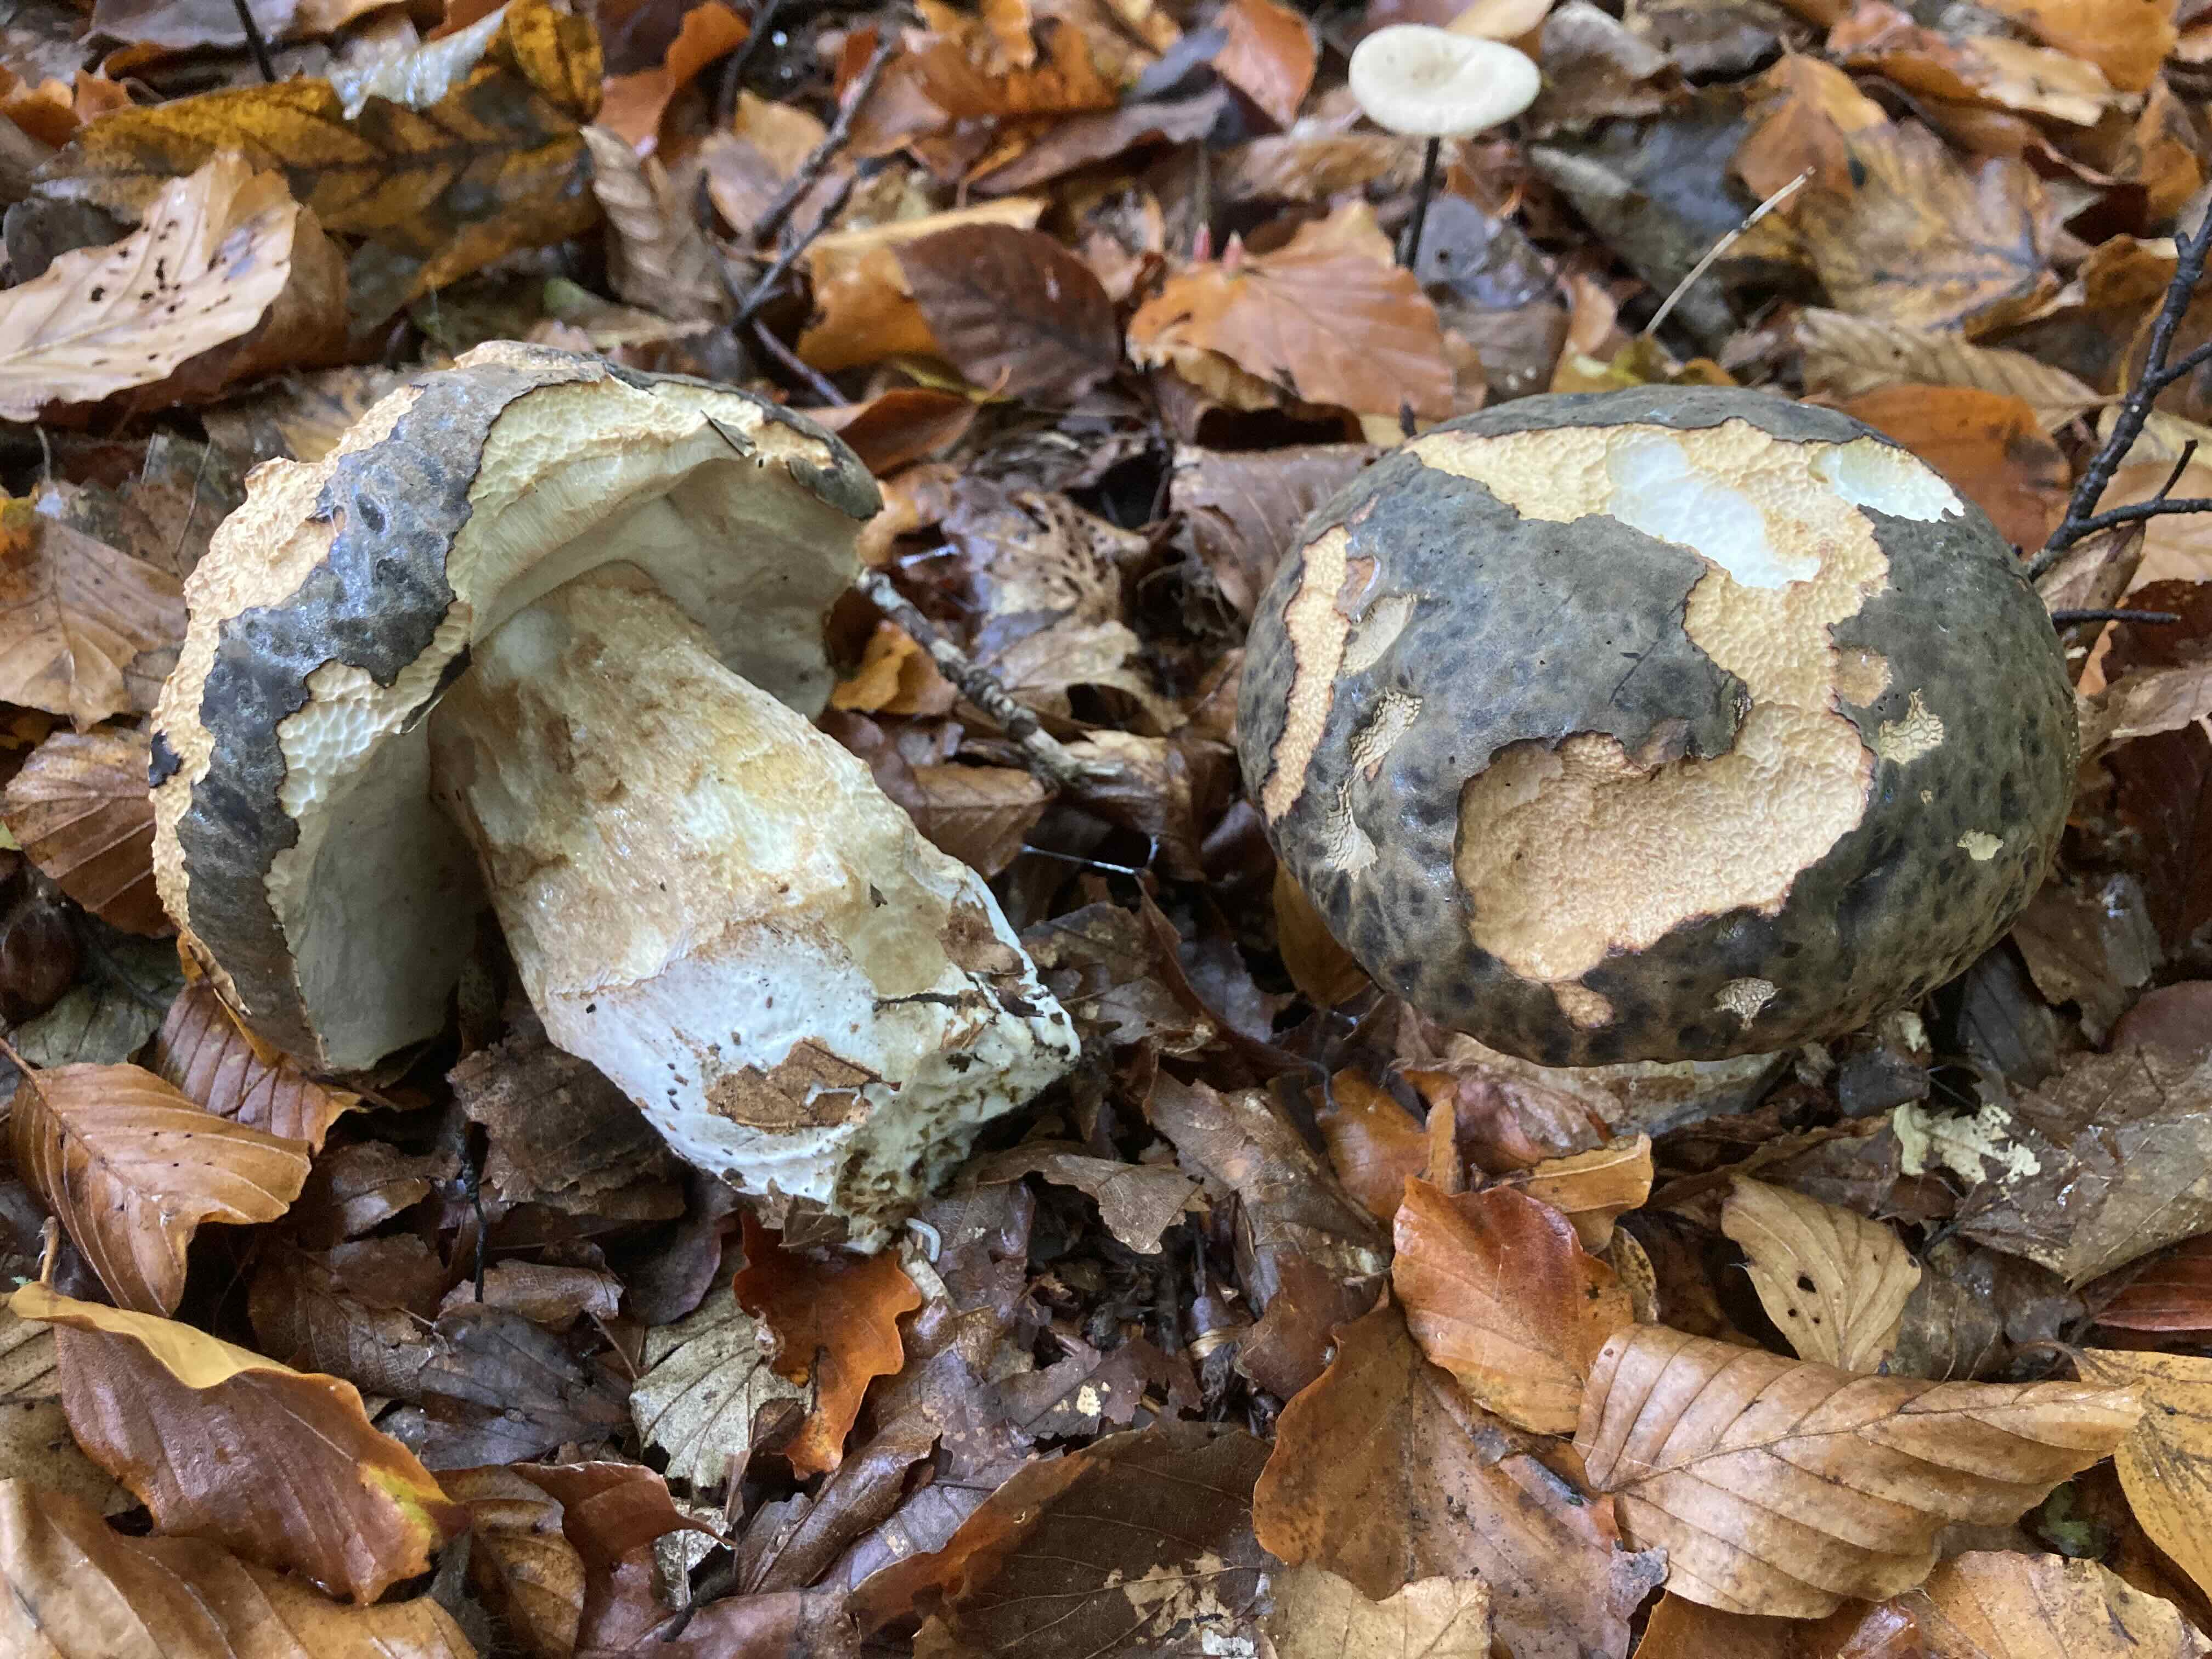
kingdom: Fungi
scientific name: Fungi
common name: bronze-rørhat
